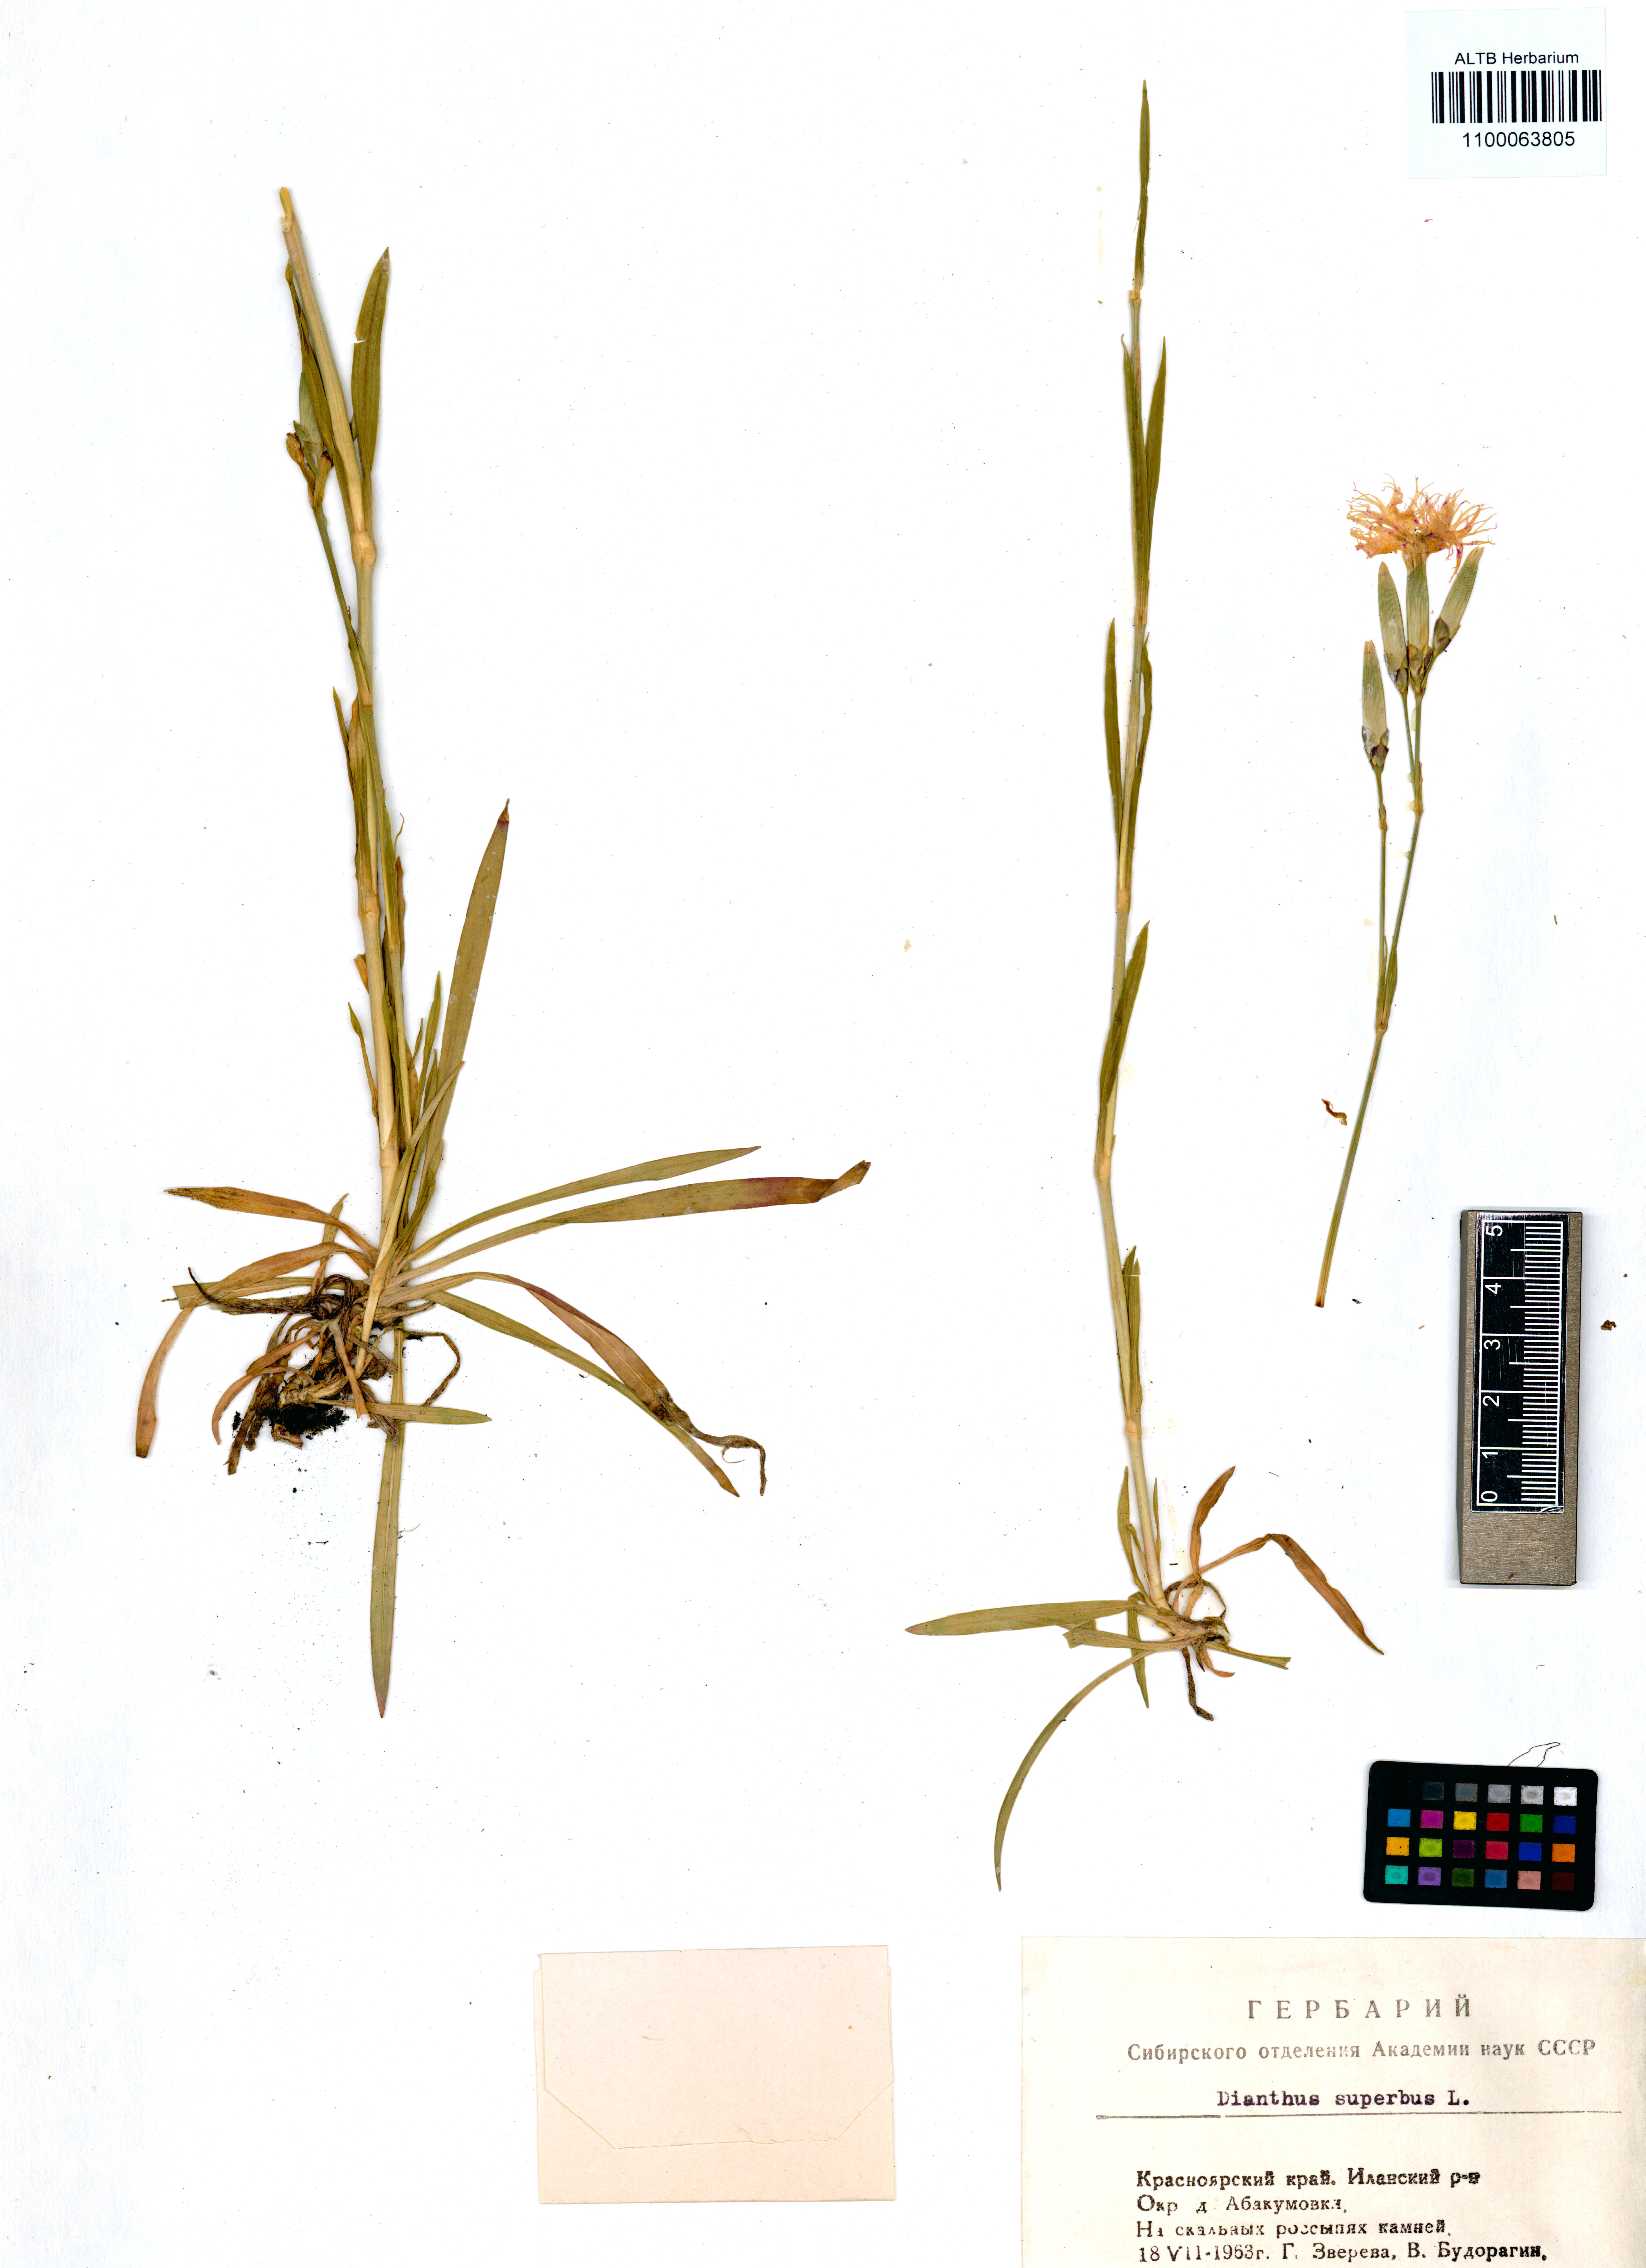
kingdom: Plantae
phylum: Tracheophyta
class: Magnoliopsida
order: Caryophyllales
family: Caryophyllaceae
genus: Dianthus
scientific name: Dianthus superbus
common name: Fringed pink
